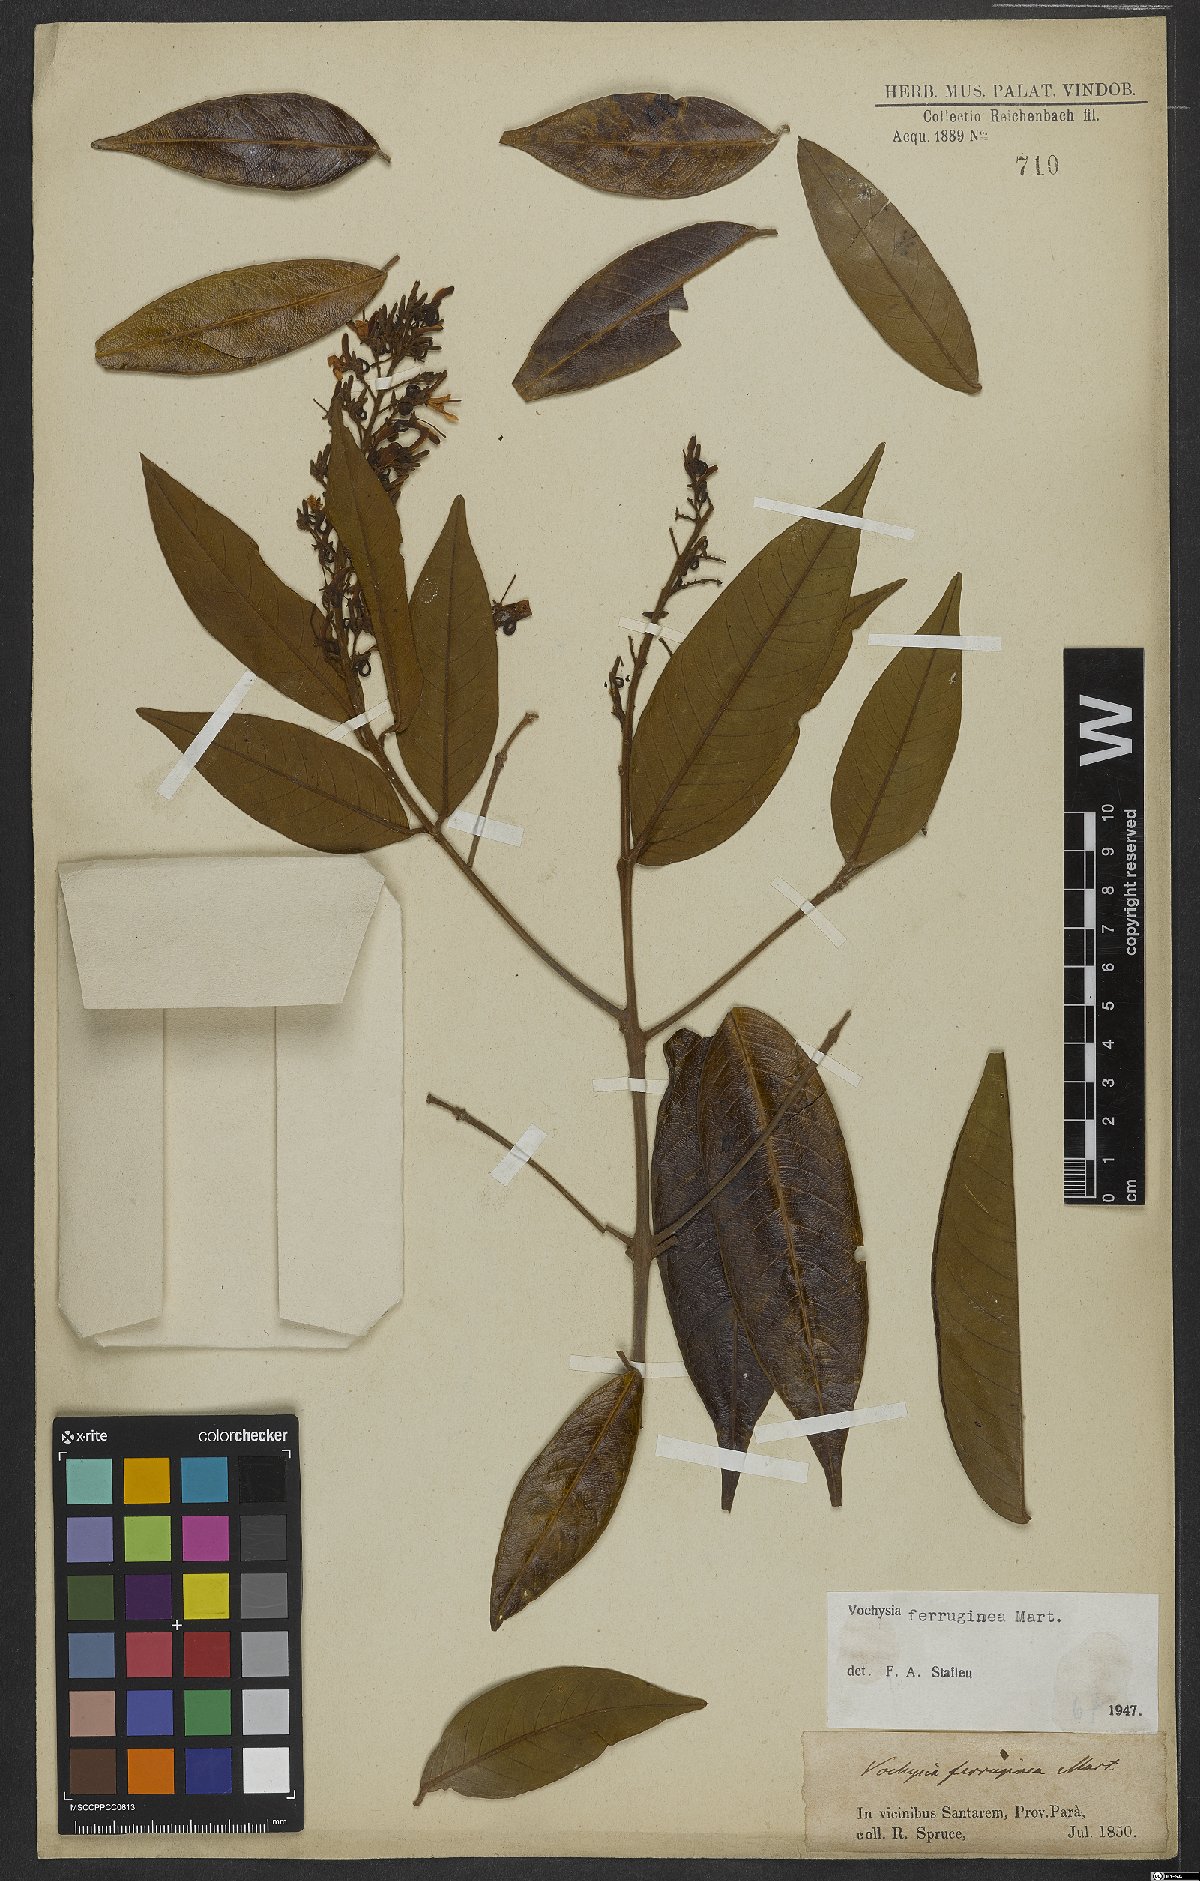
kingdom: Plantae
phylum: Tracheophyta
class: Magnoliopsida
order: Myrtales
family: Vochysiaceae
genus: Vochysia
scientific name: Vochysia ferruginea
